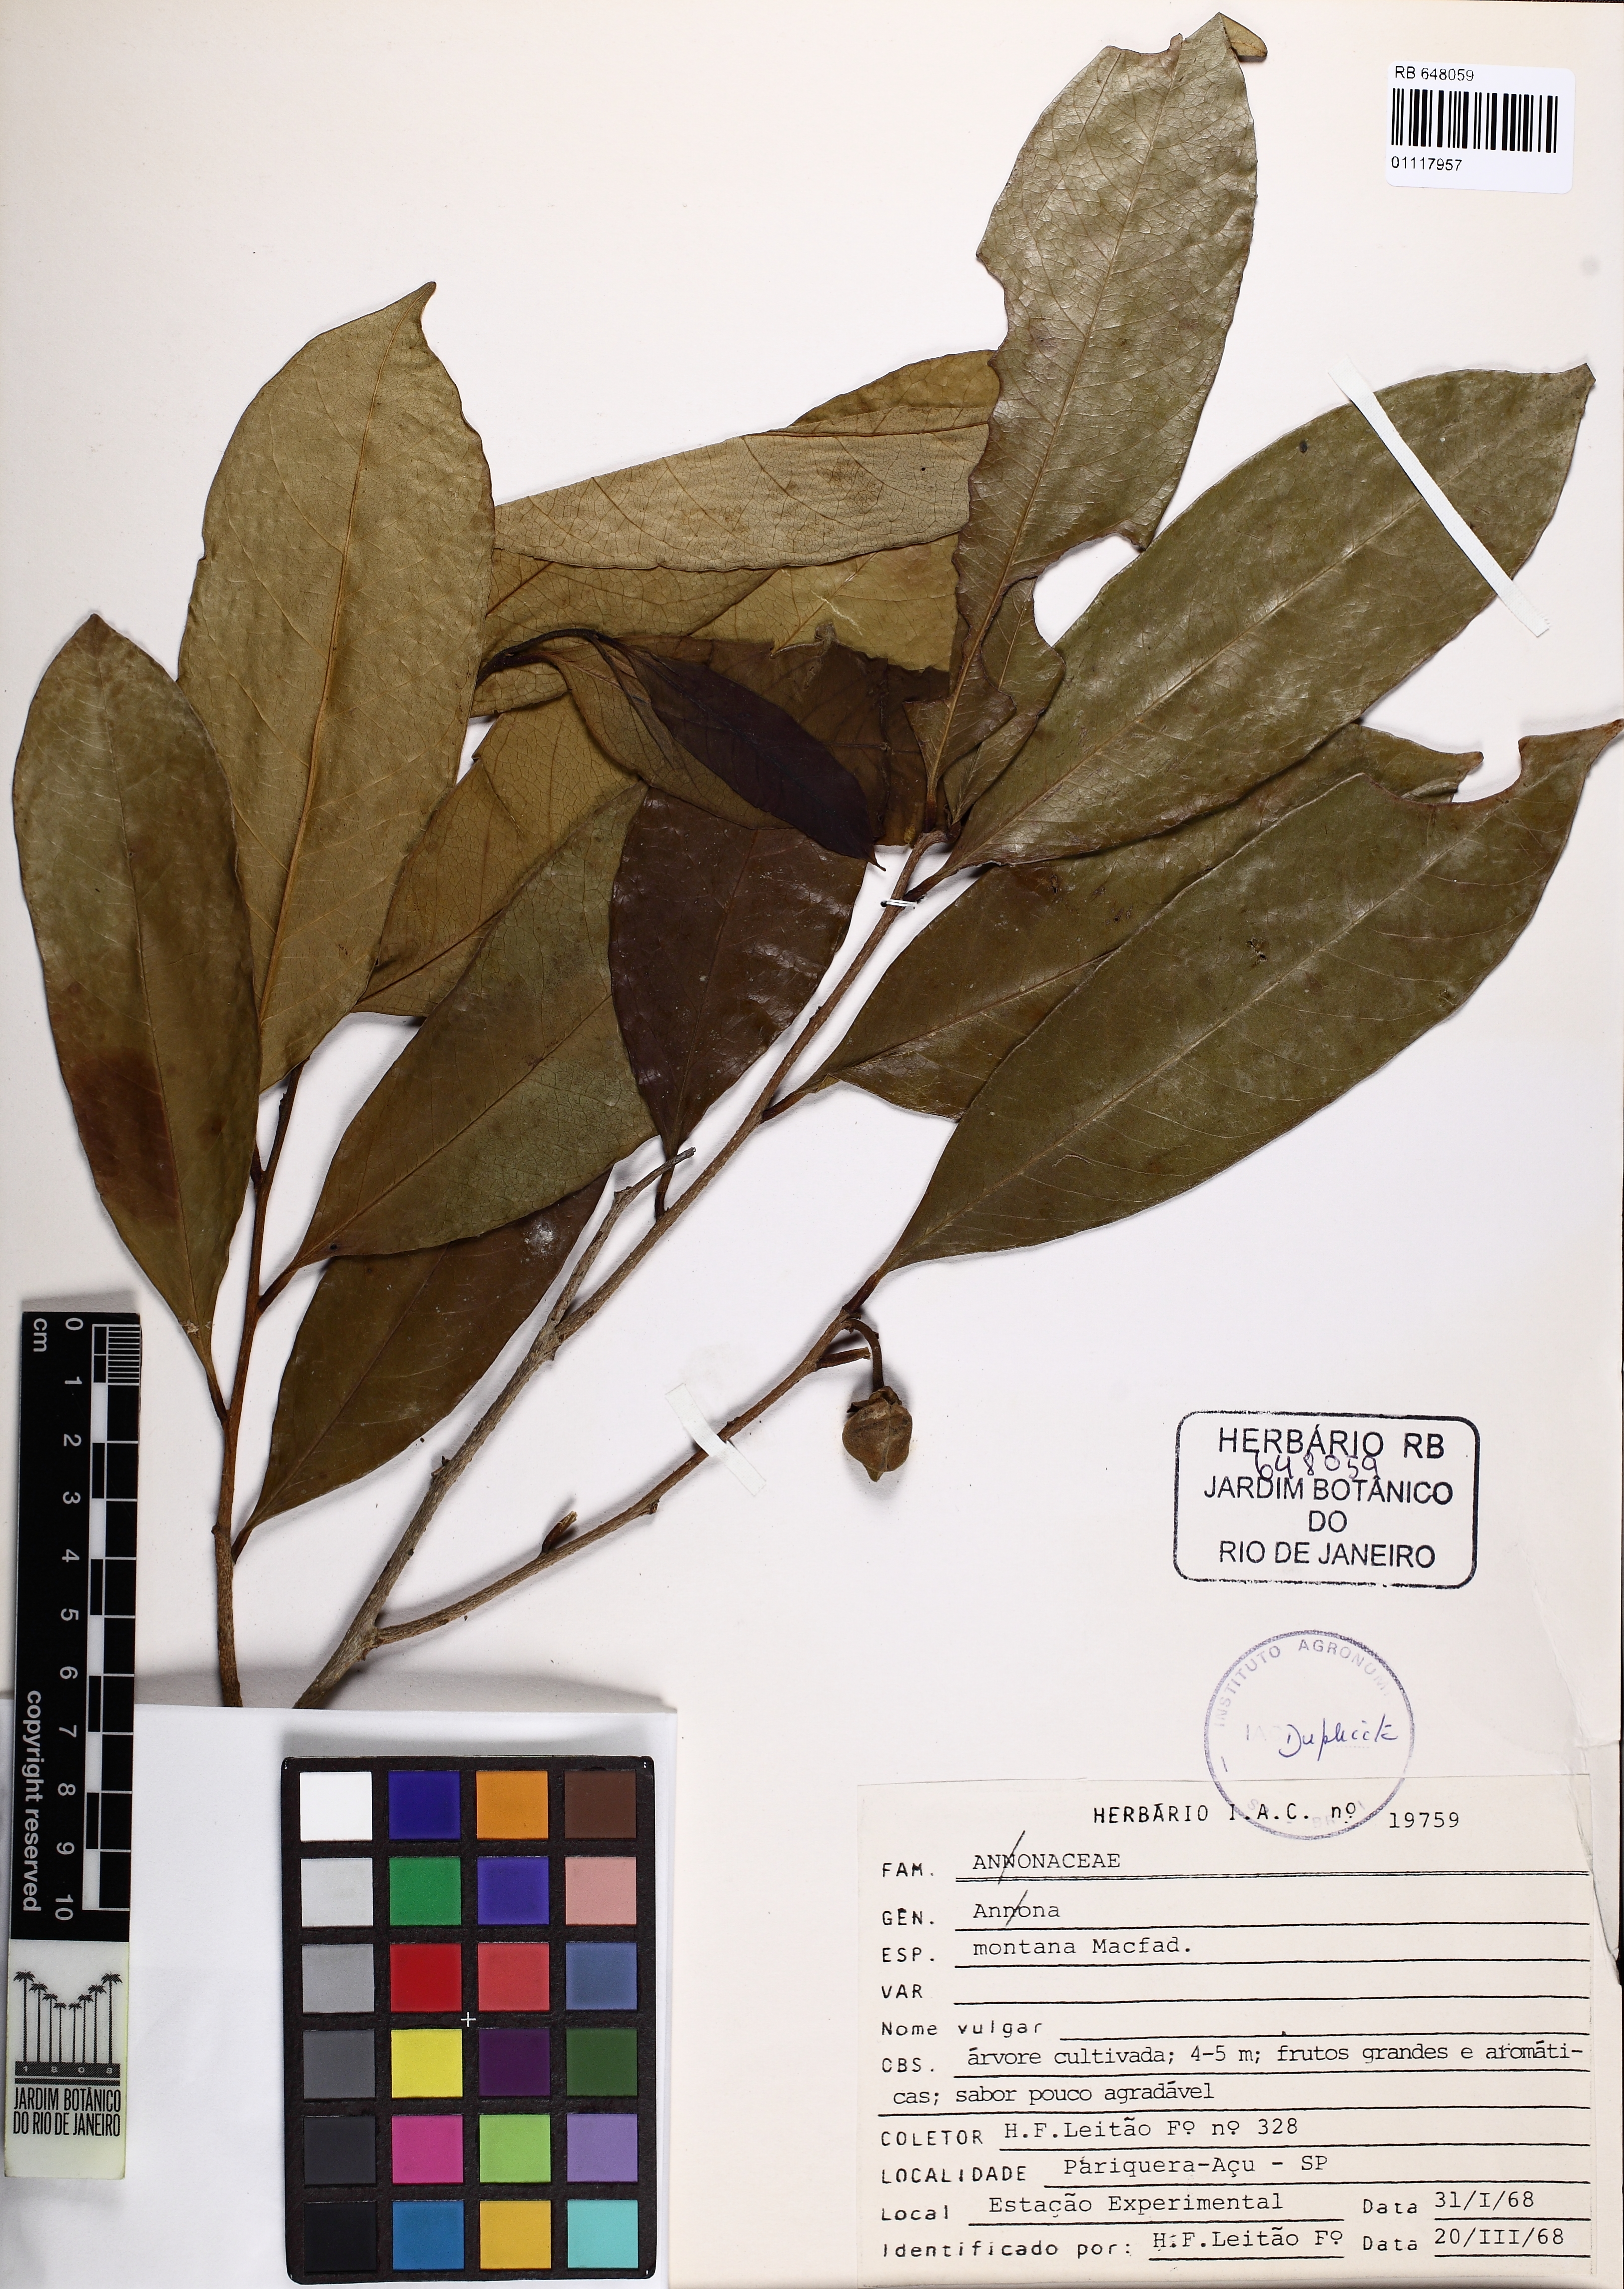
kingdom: Plantae
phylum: Tracheophyta
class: Magnoliopsida
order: Magnoliales
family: Annonaceae
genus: Anaxagorea
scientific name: Anaxagorea
